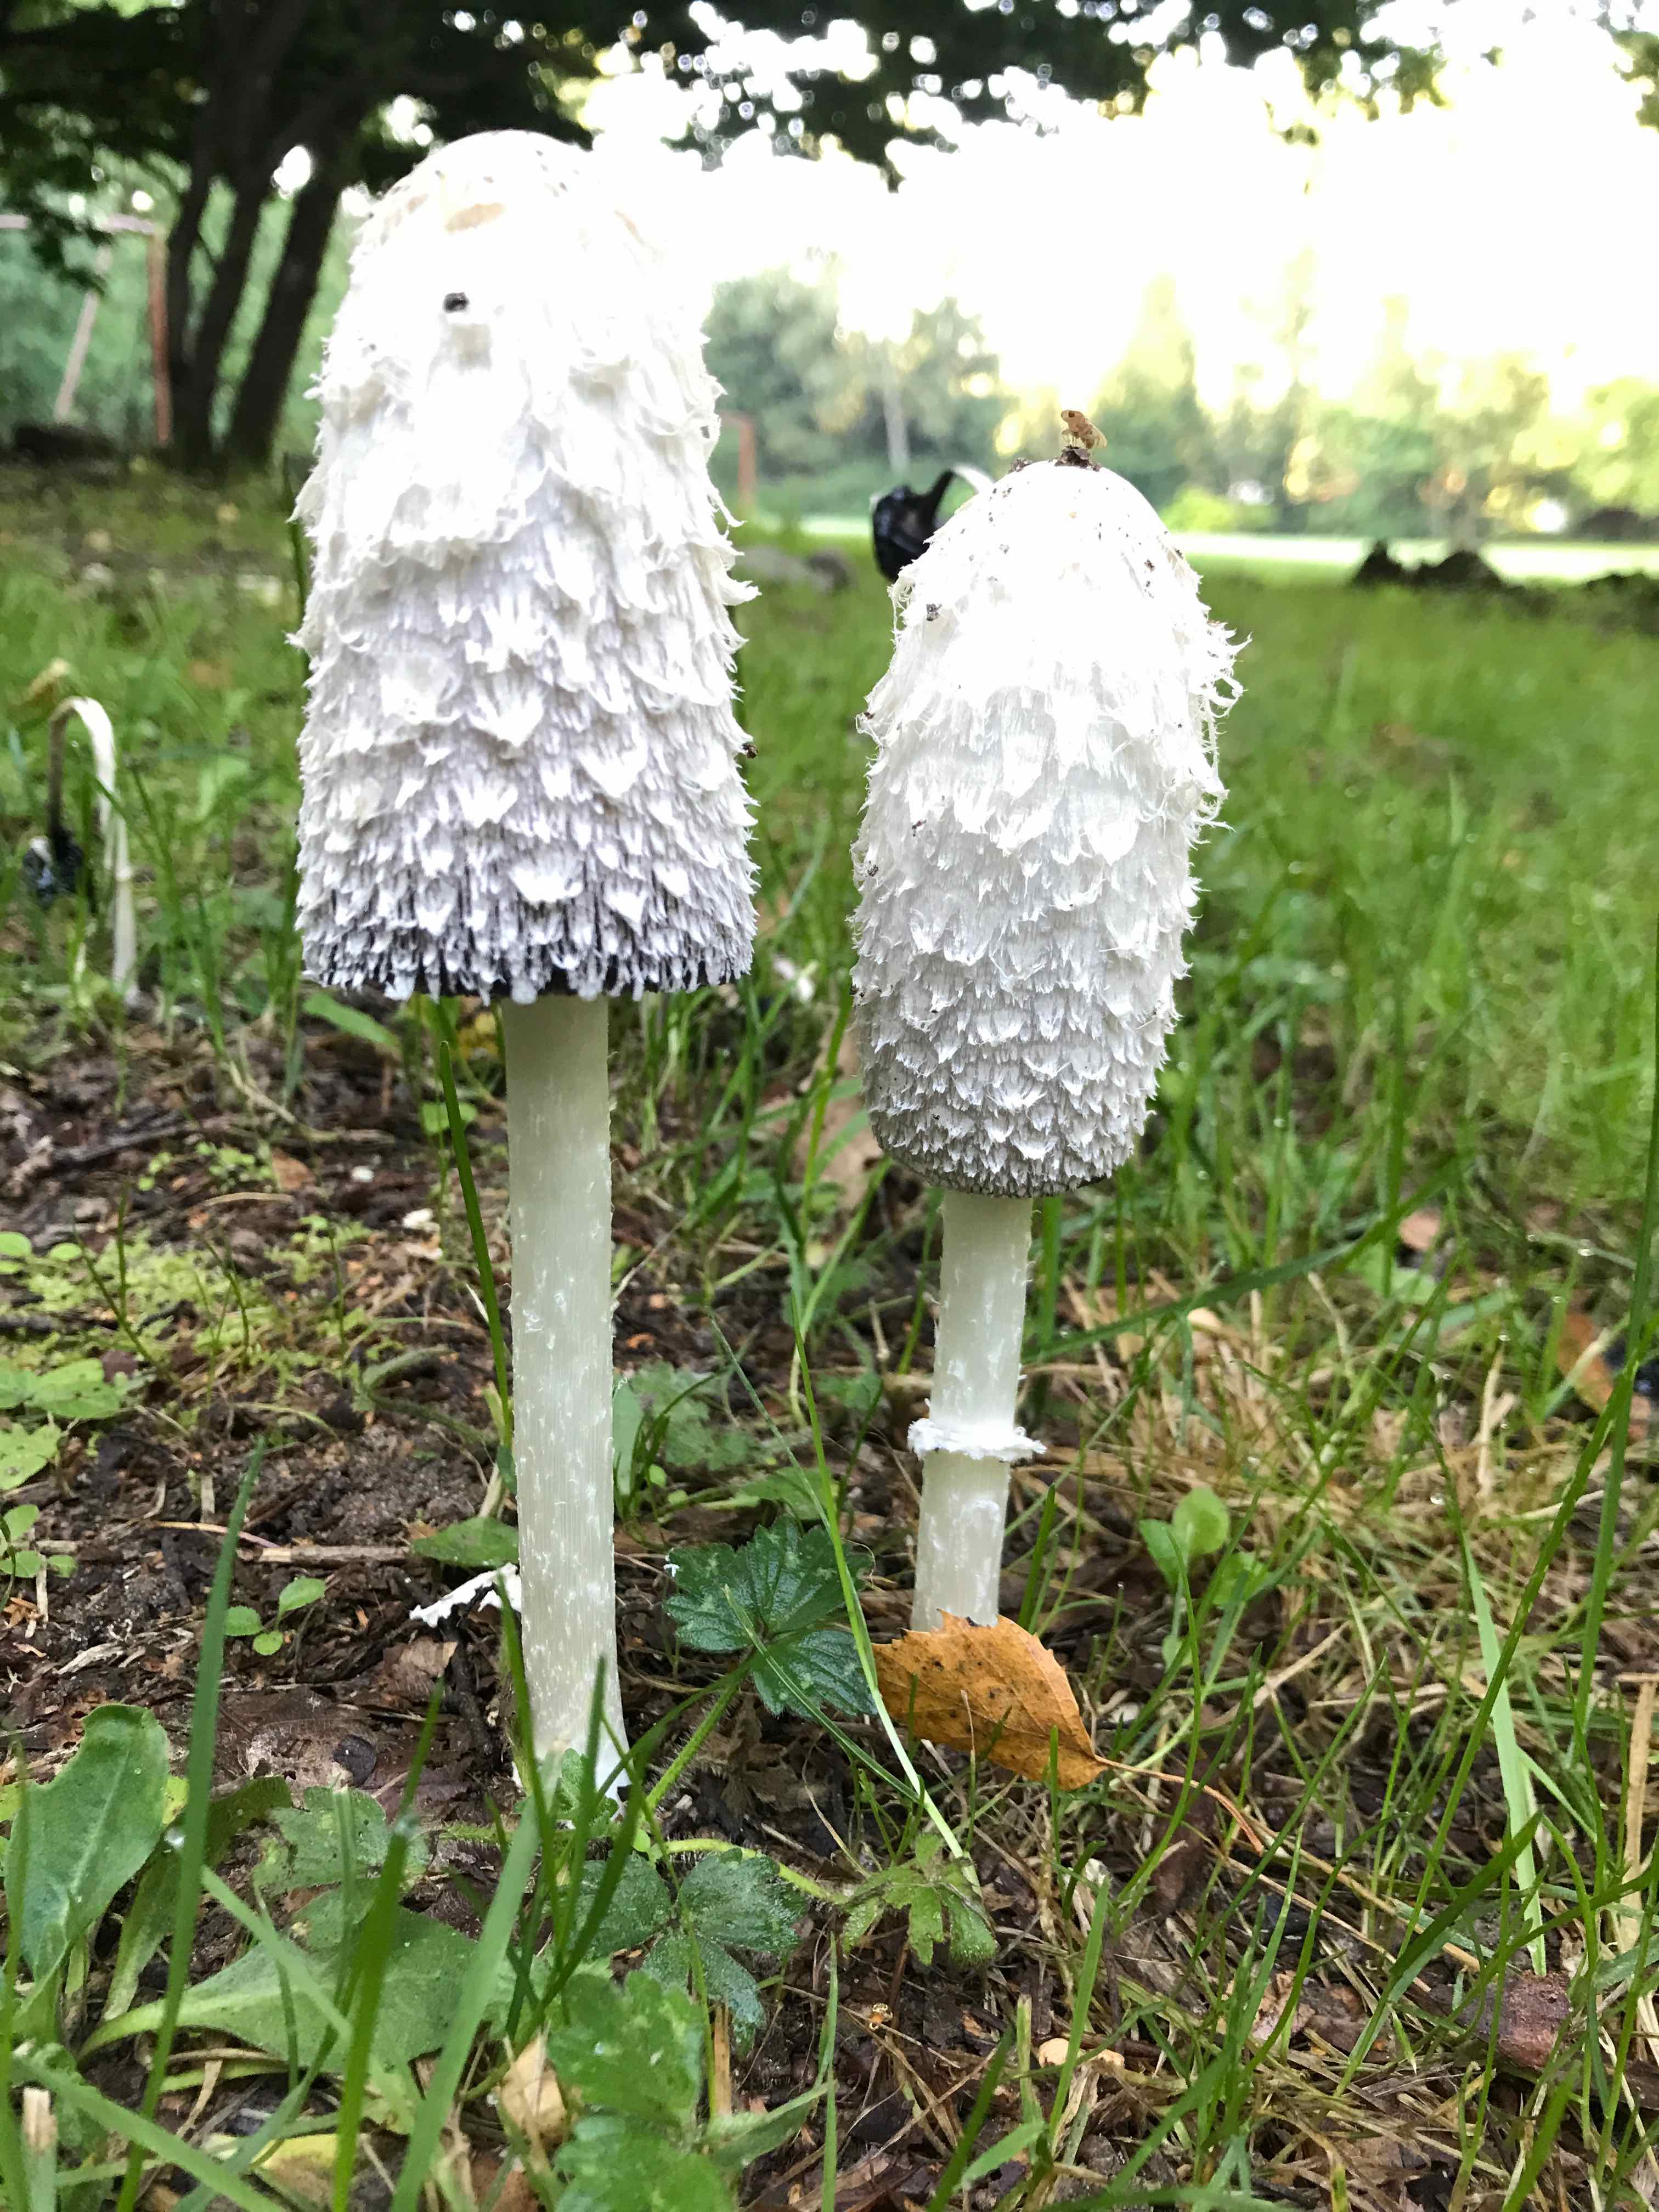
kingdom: Fungi
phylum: Basidiomycota
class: Agaricomycetes
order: Agaricales
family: Agaricaceae
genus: Coprinus
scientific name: Coprinus comatus
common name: stor parykhat
